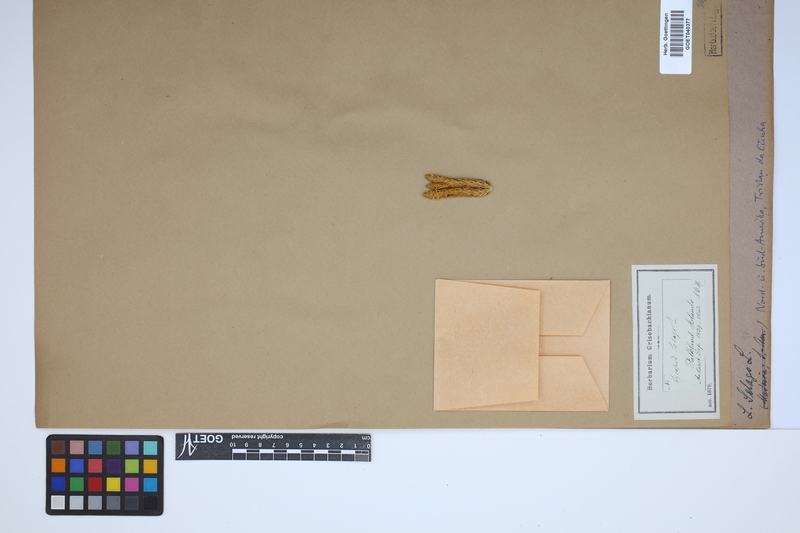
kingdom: Plantae
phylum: Tracheophyta
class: Lycopodiopsida
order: Lycopodiales
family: Lycopodiaceae
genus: Huperzia
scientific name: Huperzia selago
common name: Northern firmoss
